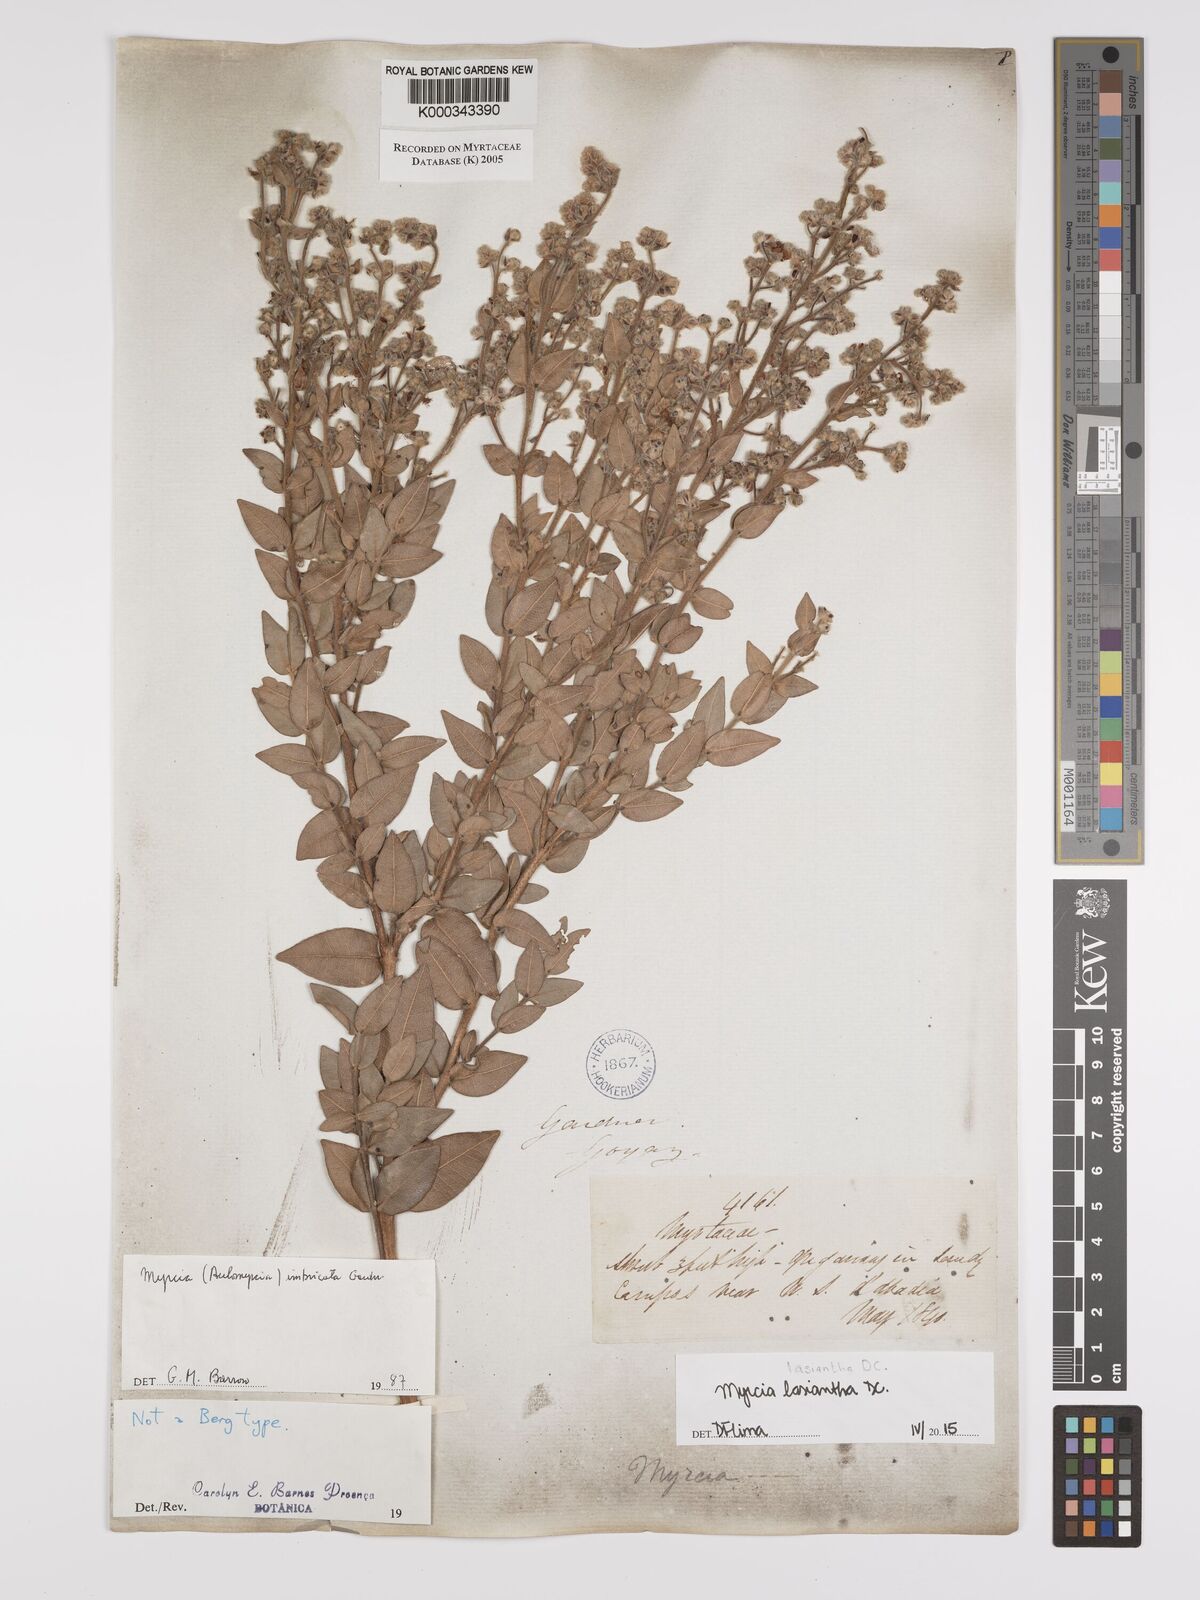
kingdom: Plantae
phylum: Tracheophyta
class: Magnoliopsida
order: Myrtales
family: Myrtaceae
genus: Myrcia
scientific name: Myrcia racemulosa
